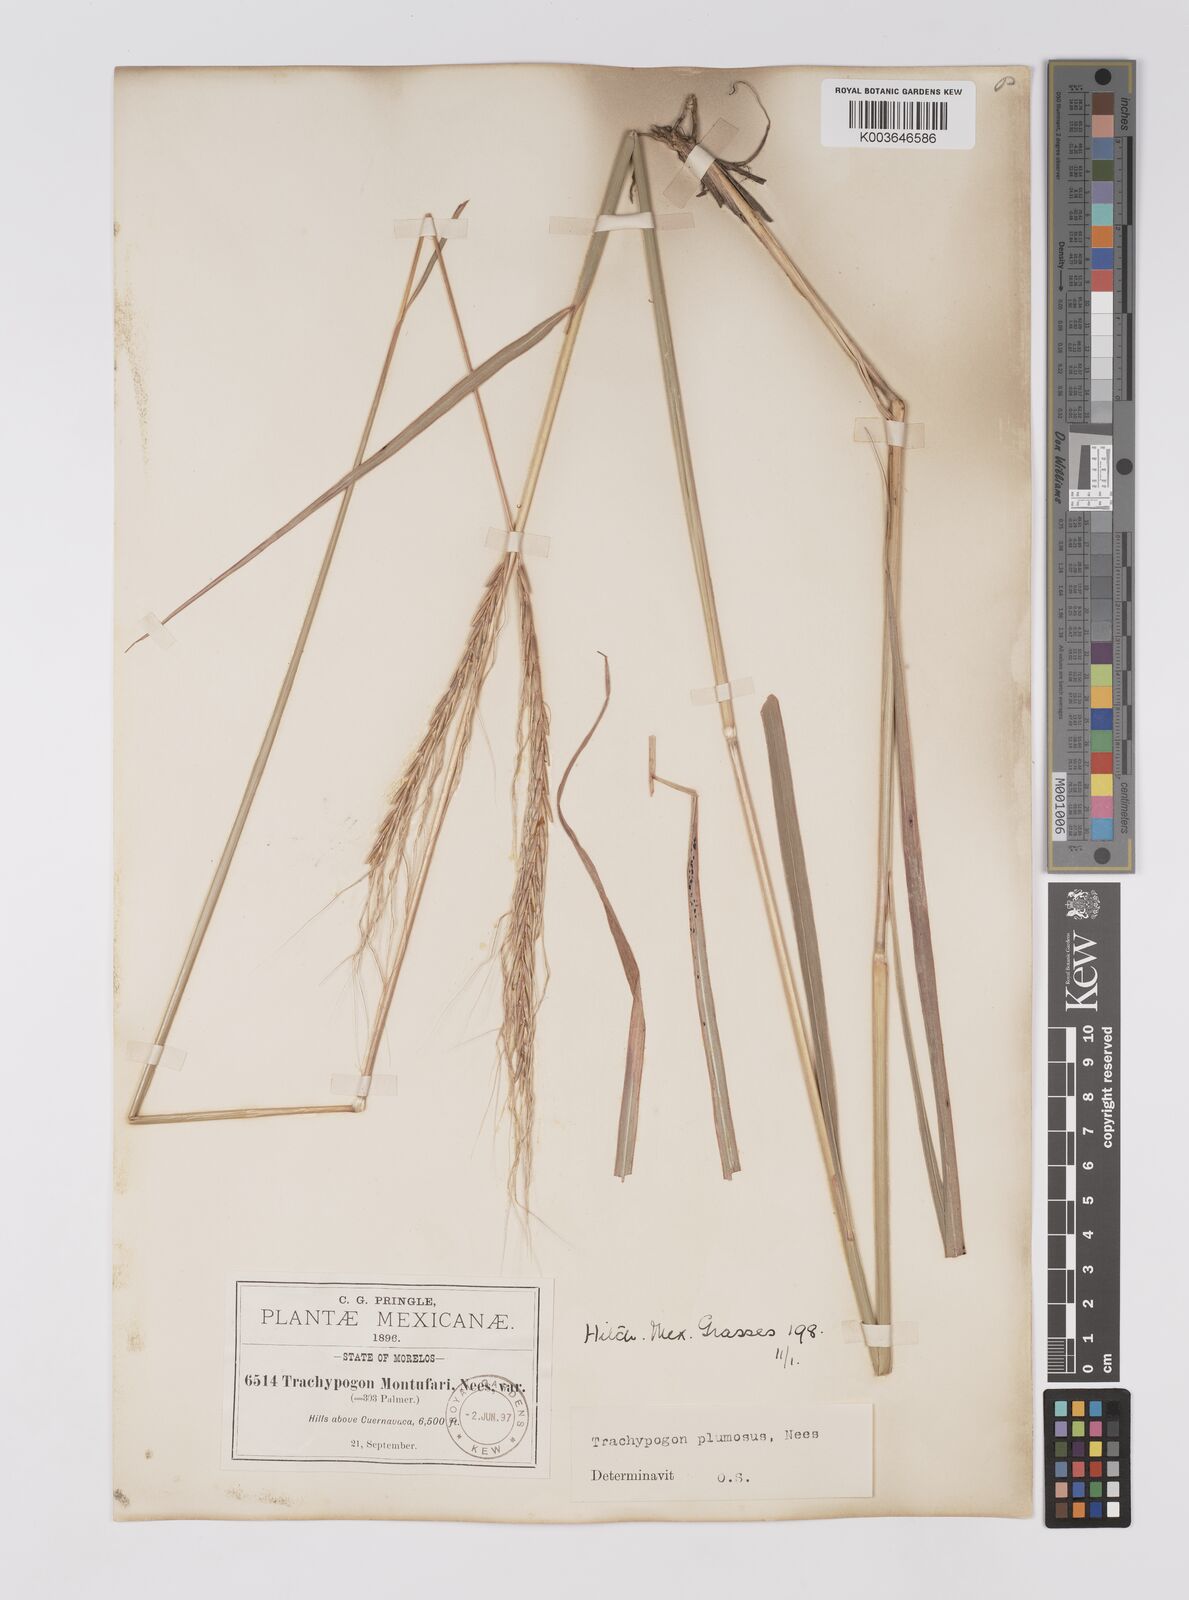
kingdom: Plantae
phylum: Tracheophyta
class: Liliopsida
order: Poales
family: Poaceae
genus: Trachypogon
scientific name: Trachypogon spicatus
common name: Crinkle-awn
